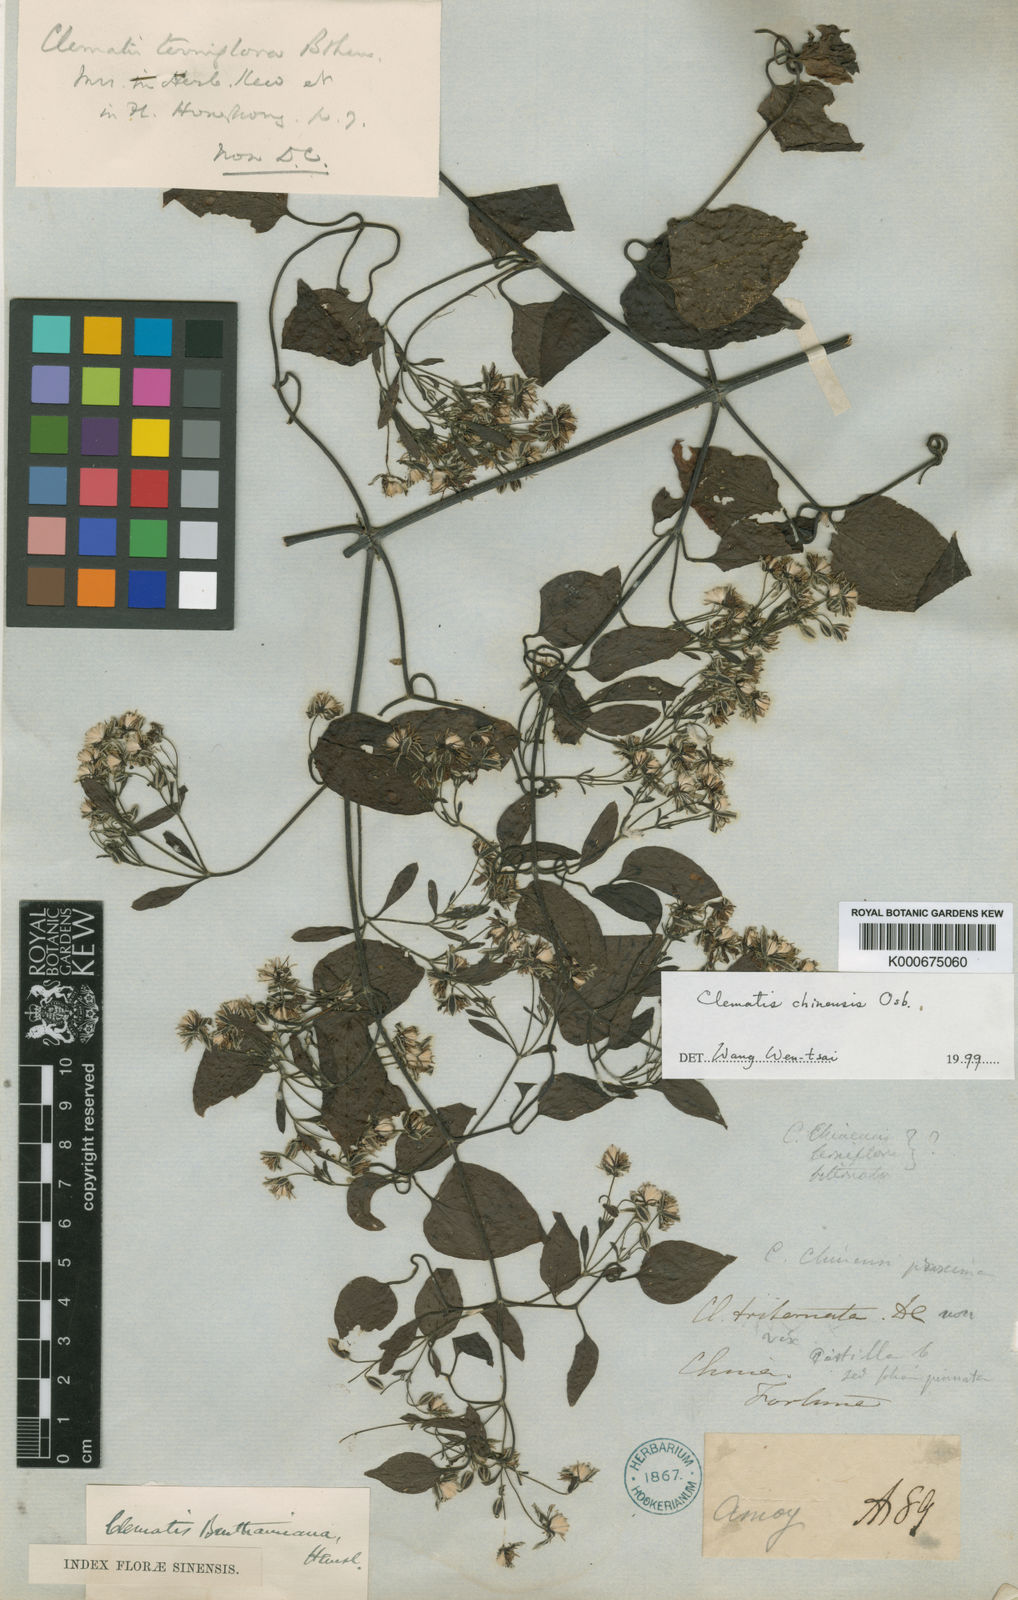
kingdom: Plantae
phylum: Tracheophyta
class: Magnoliopsida
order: Ranunculales
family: Ranunculaceae
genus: Clematis
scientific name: Clematis chinensis
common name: Chinese clematis
